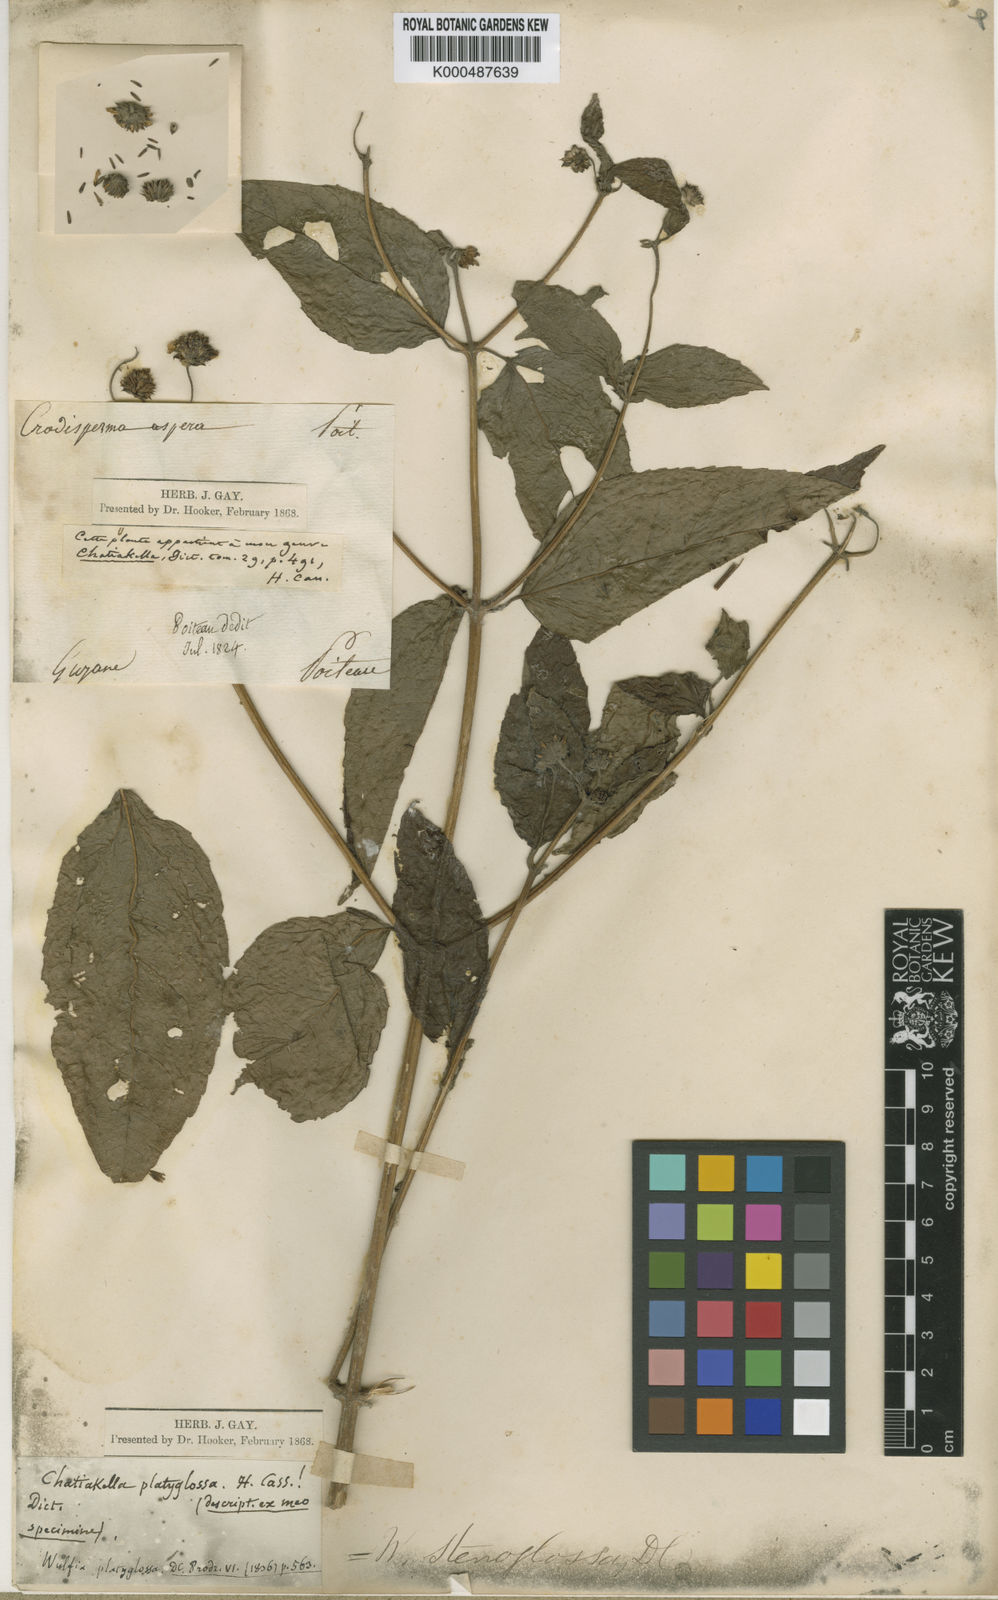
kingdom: Plantae
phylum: Tracheophyta
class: Magnoliopsida
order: Asterales
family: Asteraceae
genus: Tilesia
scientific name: Tilesia baccata
